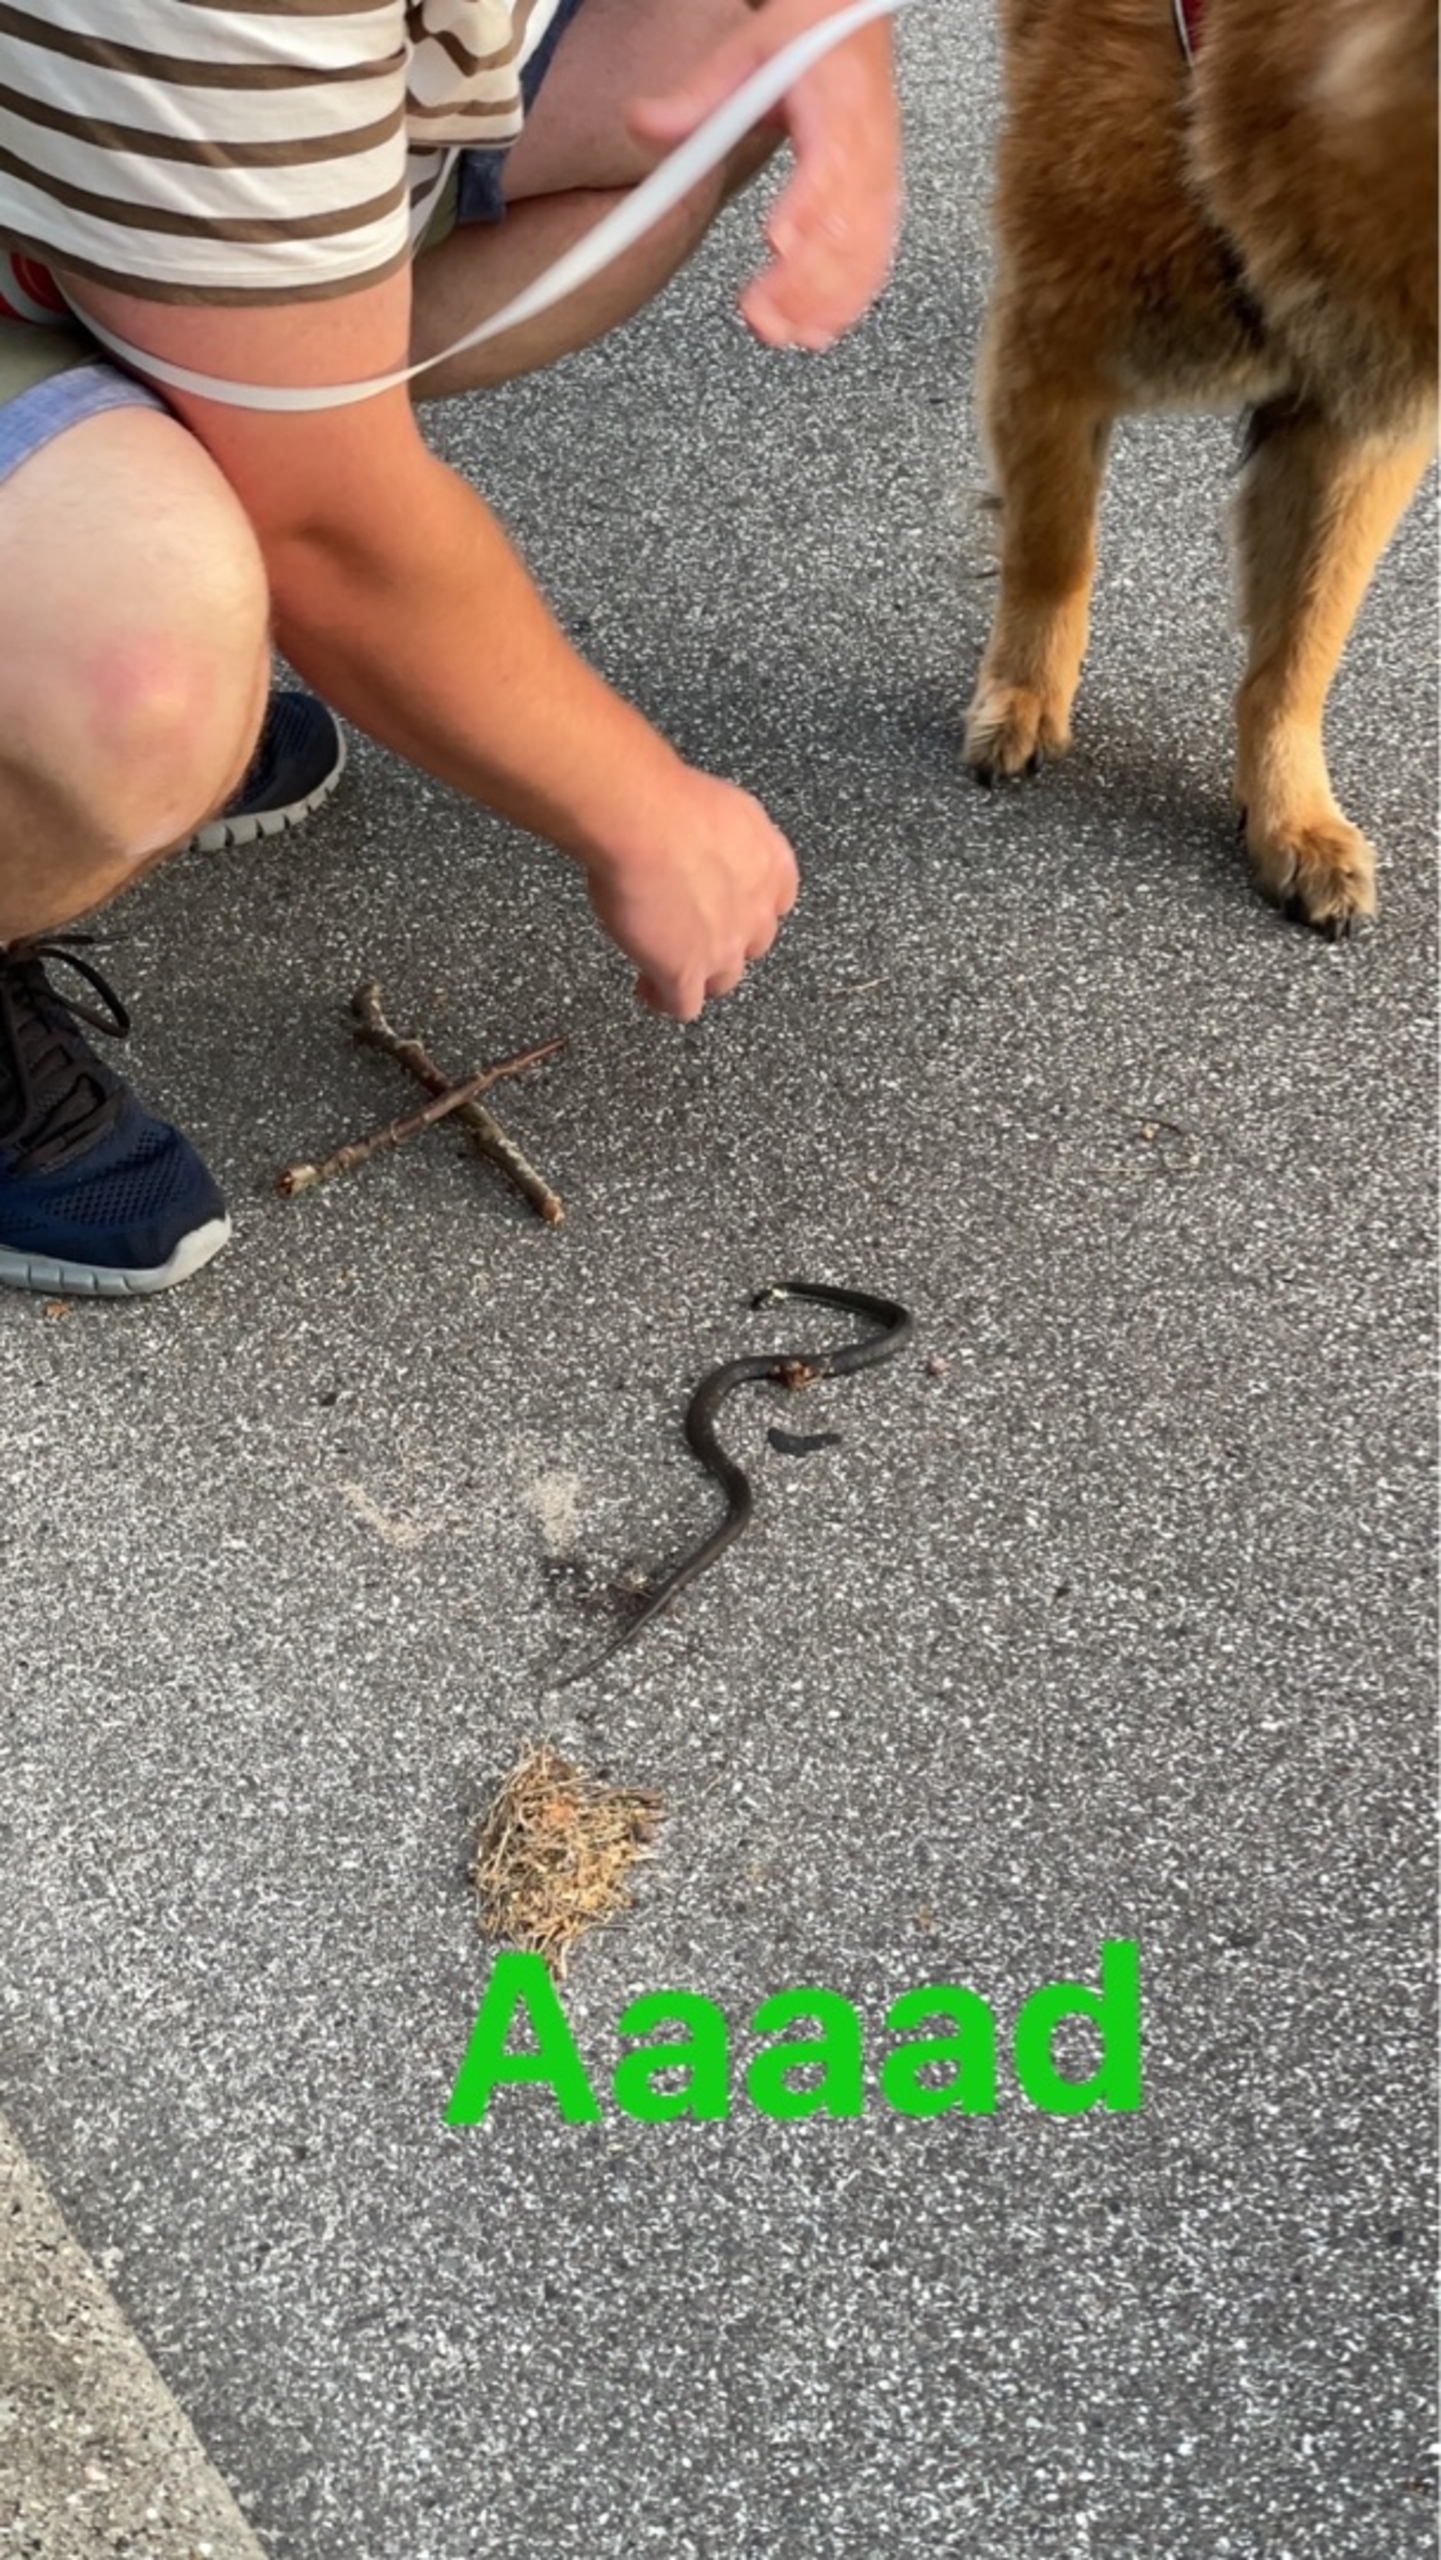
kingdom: Animalia
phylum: Chordata
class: Squamata
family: Colubridae
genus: Natrix
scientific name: Natrix natrix
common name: Snog
